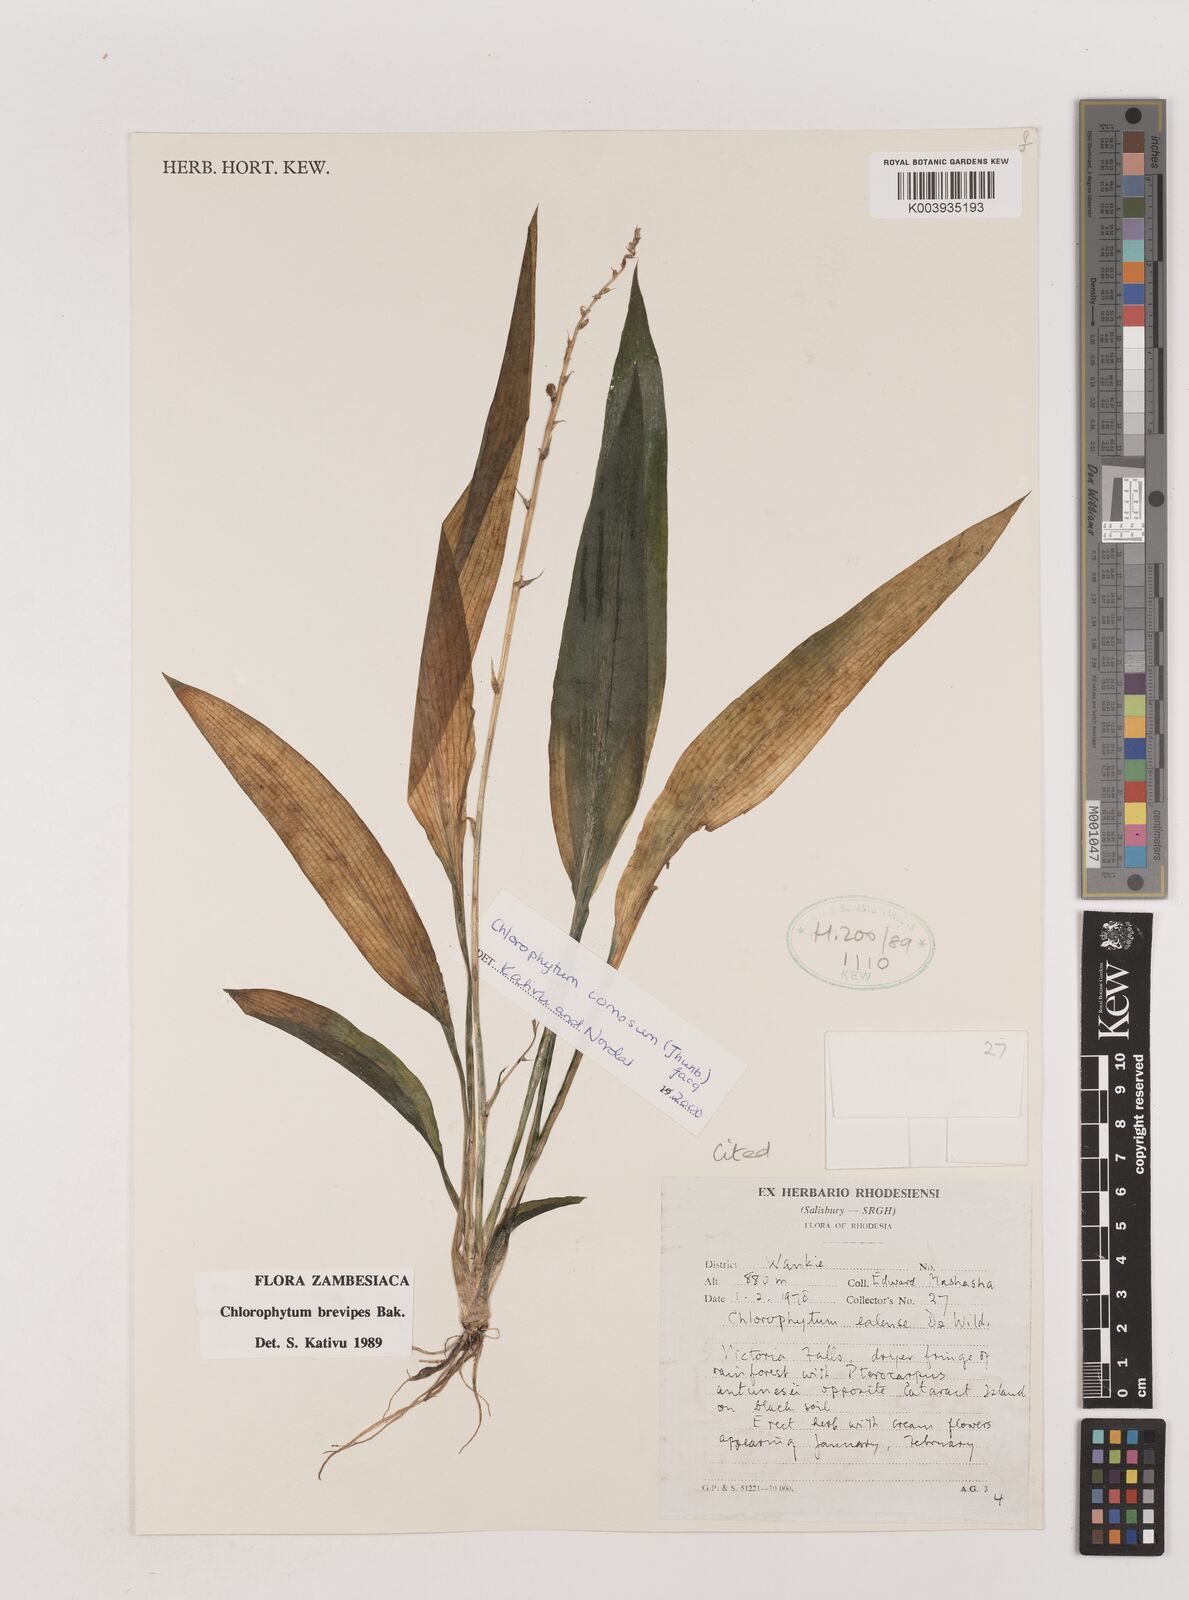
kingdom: Plantae
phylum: Tracheophyta
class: Liliopsida
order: Asparagales
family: Asparagaceae
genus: Chlorophytum
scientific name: Chlorophytum comosum
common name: Spider plant
